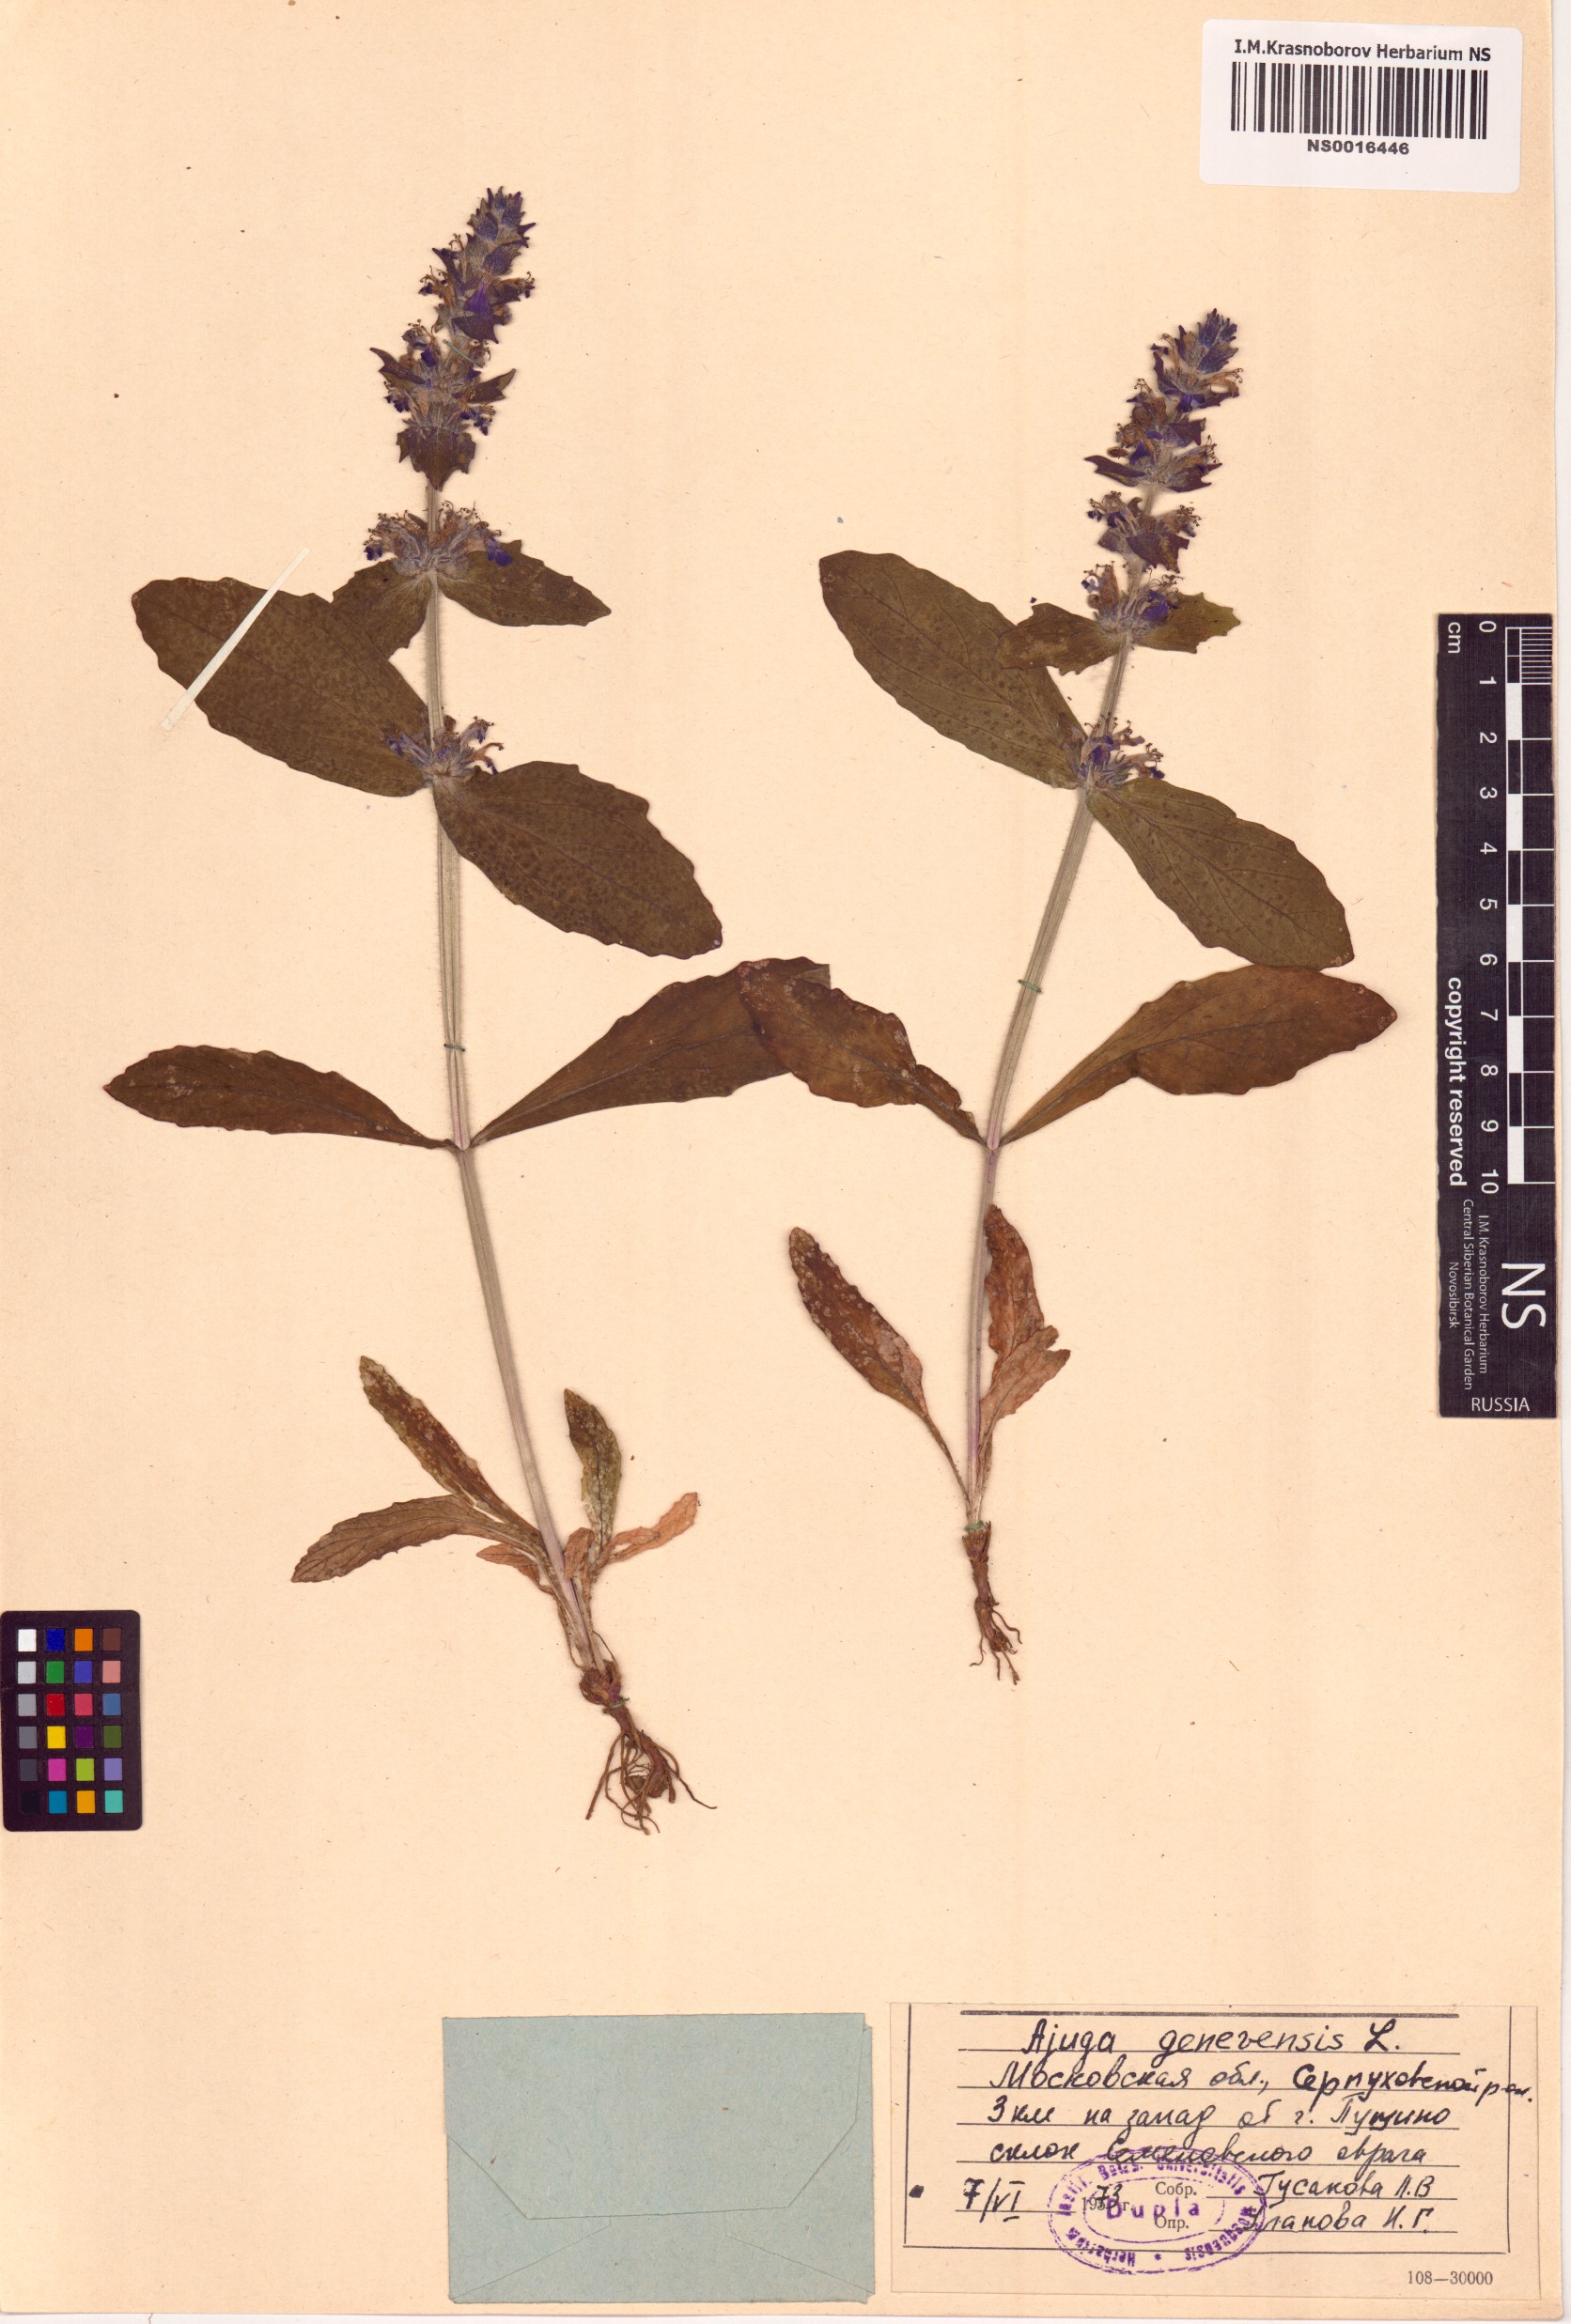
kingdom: Plantae
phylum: Tracheophyta
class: Magnoliopsida
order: Lamiales
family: Lamiaceae
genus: Ajuga
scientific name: Ajuga genevensis
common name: Blue bugle
